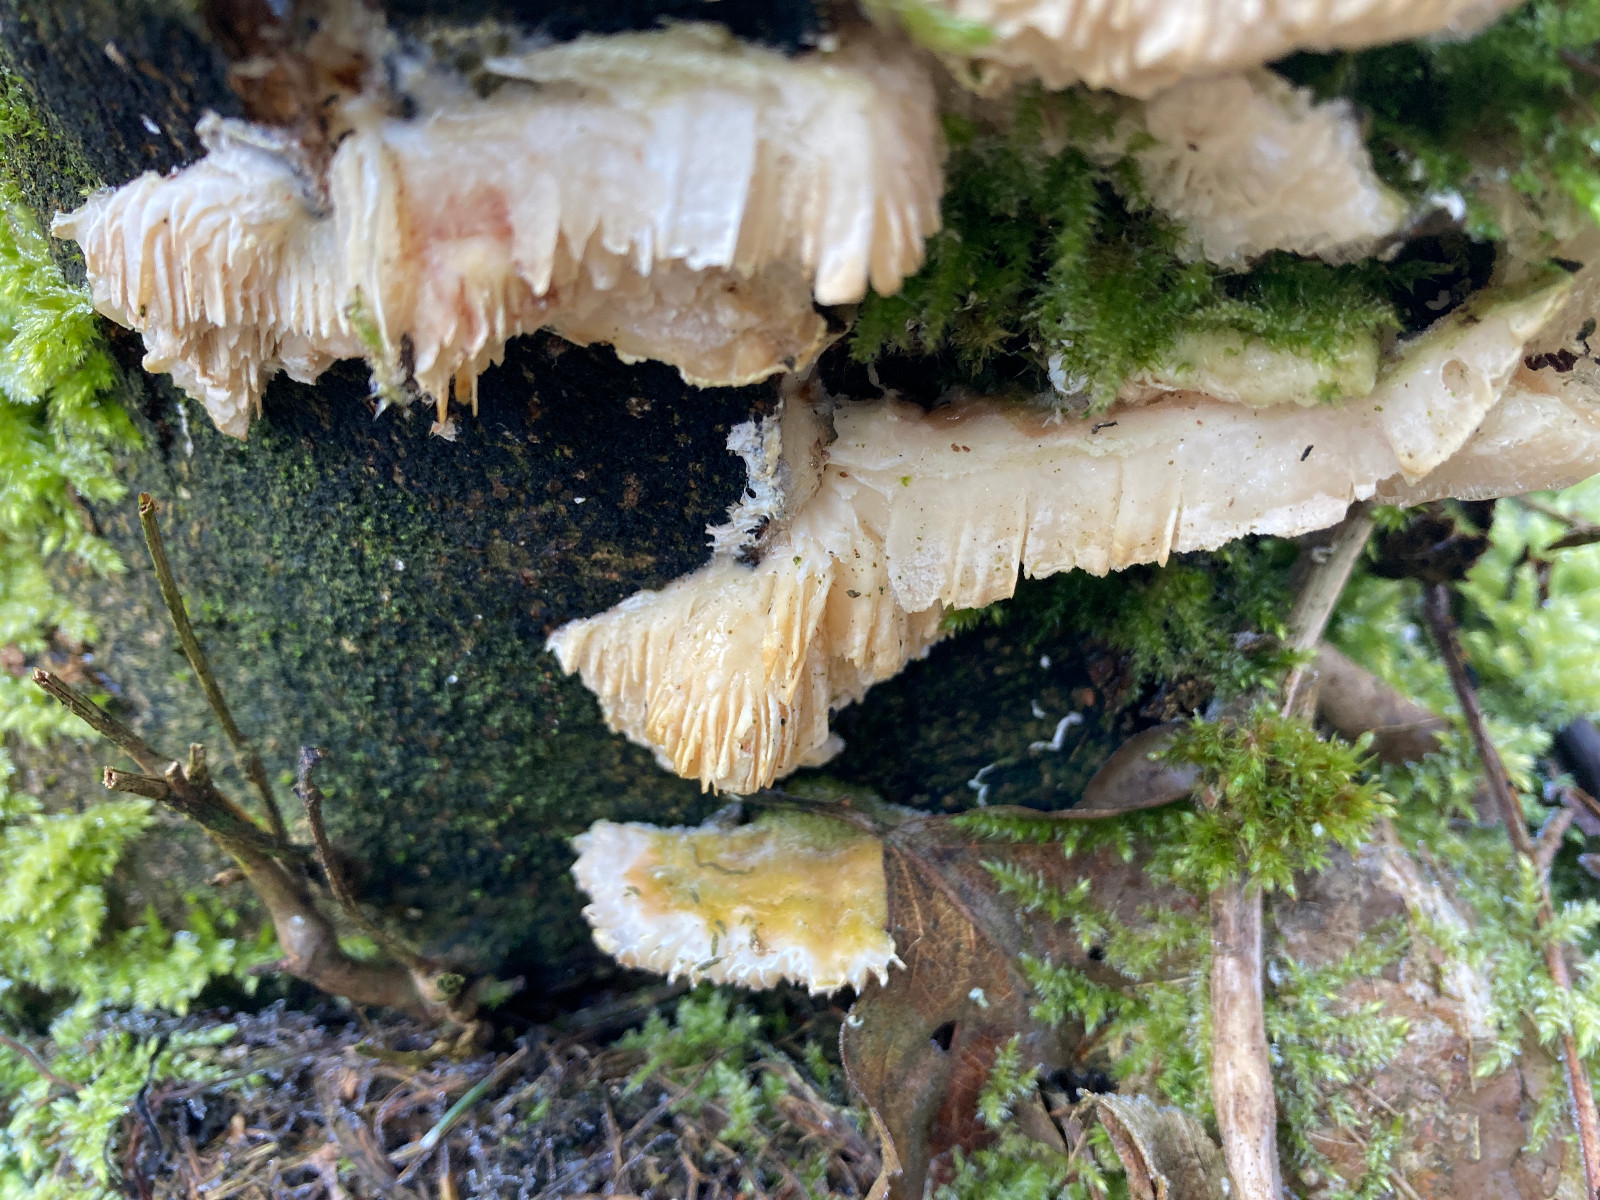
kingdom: Fungi
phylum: Basidiomycota
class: Agaricomycetes
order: Polyporales
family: Polyporaceae
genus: Lenzites
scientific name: Lenzites betulinus
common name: birke-læderporesvamp
